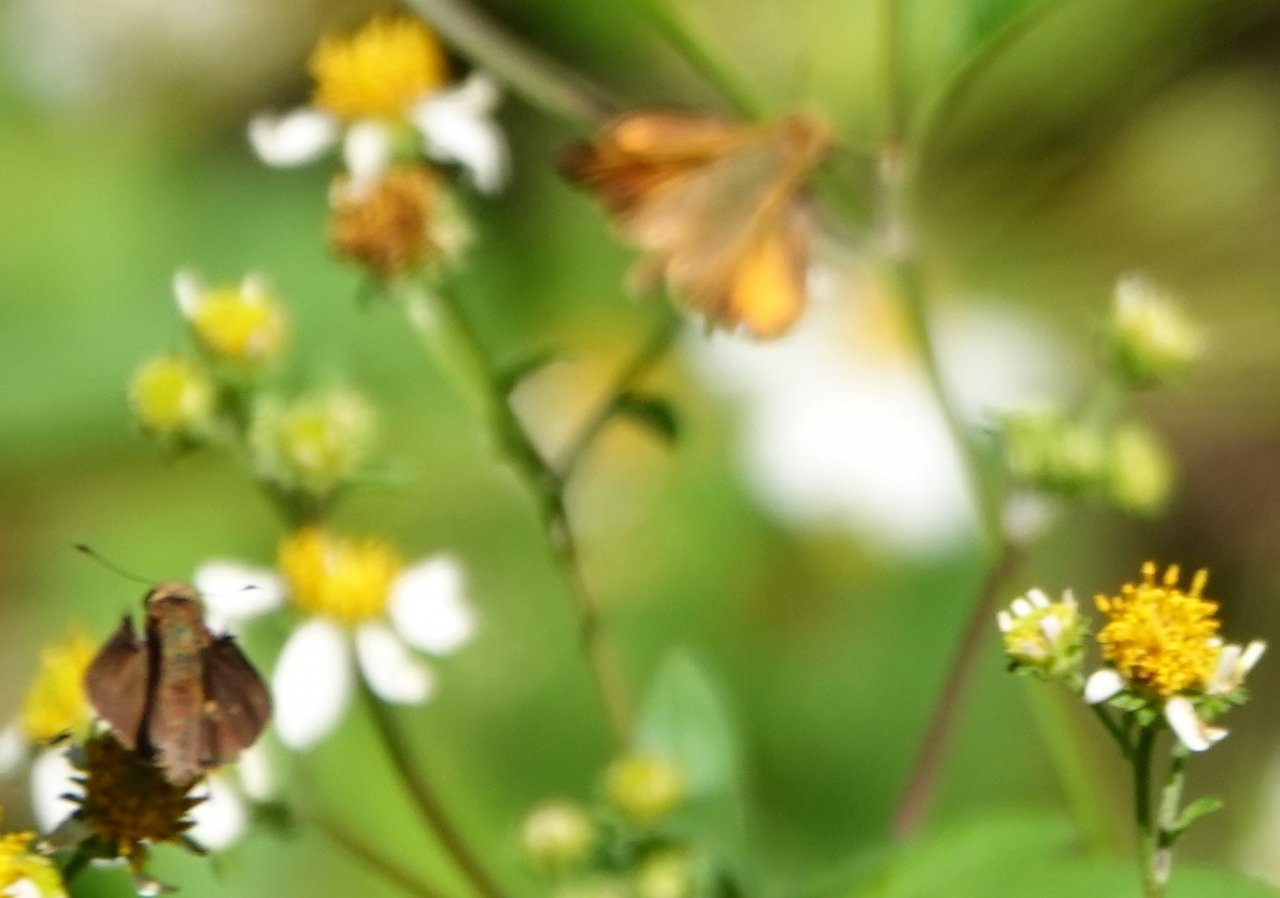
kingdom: Animalia
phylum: Arthropoda
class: Insecta
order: Lepidoptera
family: Hesperiidae
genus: Hylephila
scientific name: Hylephila phyleus
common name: Fiery Skipper
